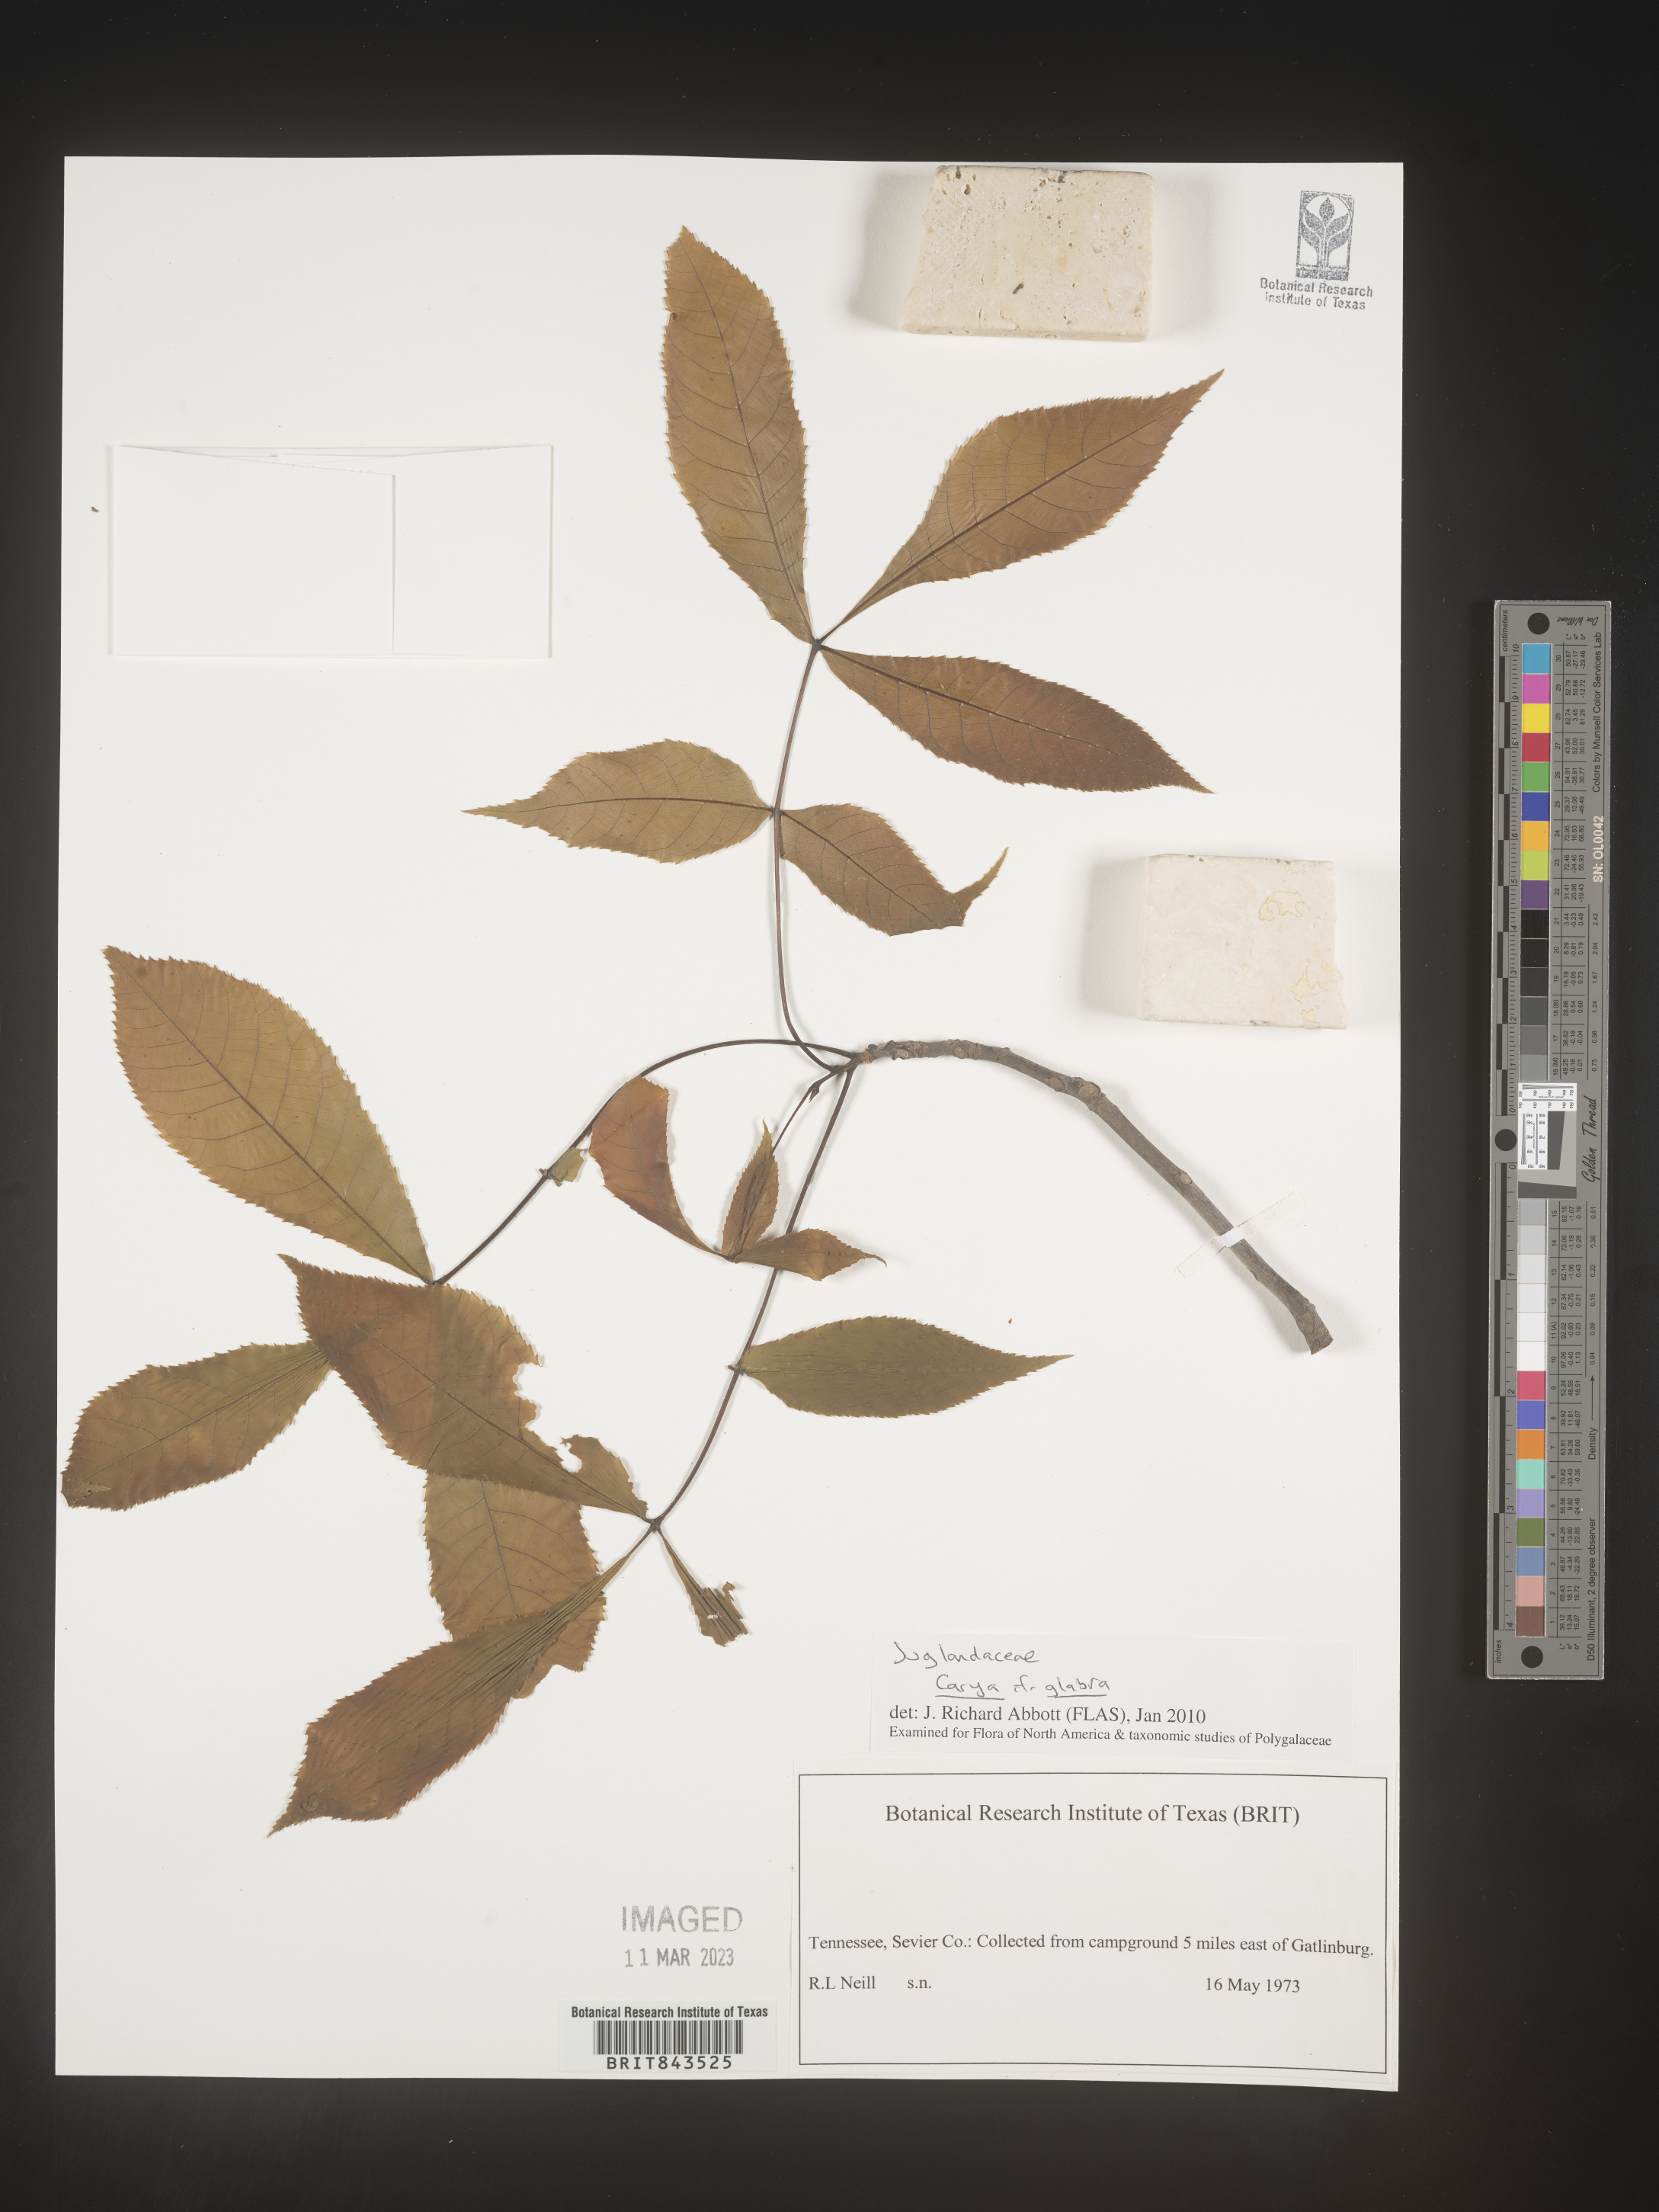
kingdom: Plantae
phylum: Tracheophyta
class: Magnoliopsida
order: Fagales
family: Juglandaceae
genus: Carya
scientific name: Carya glabra
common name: Pignut hickory
